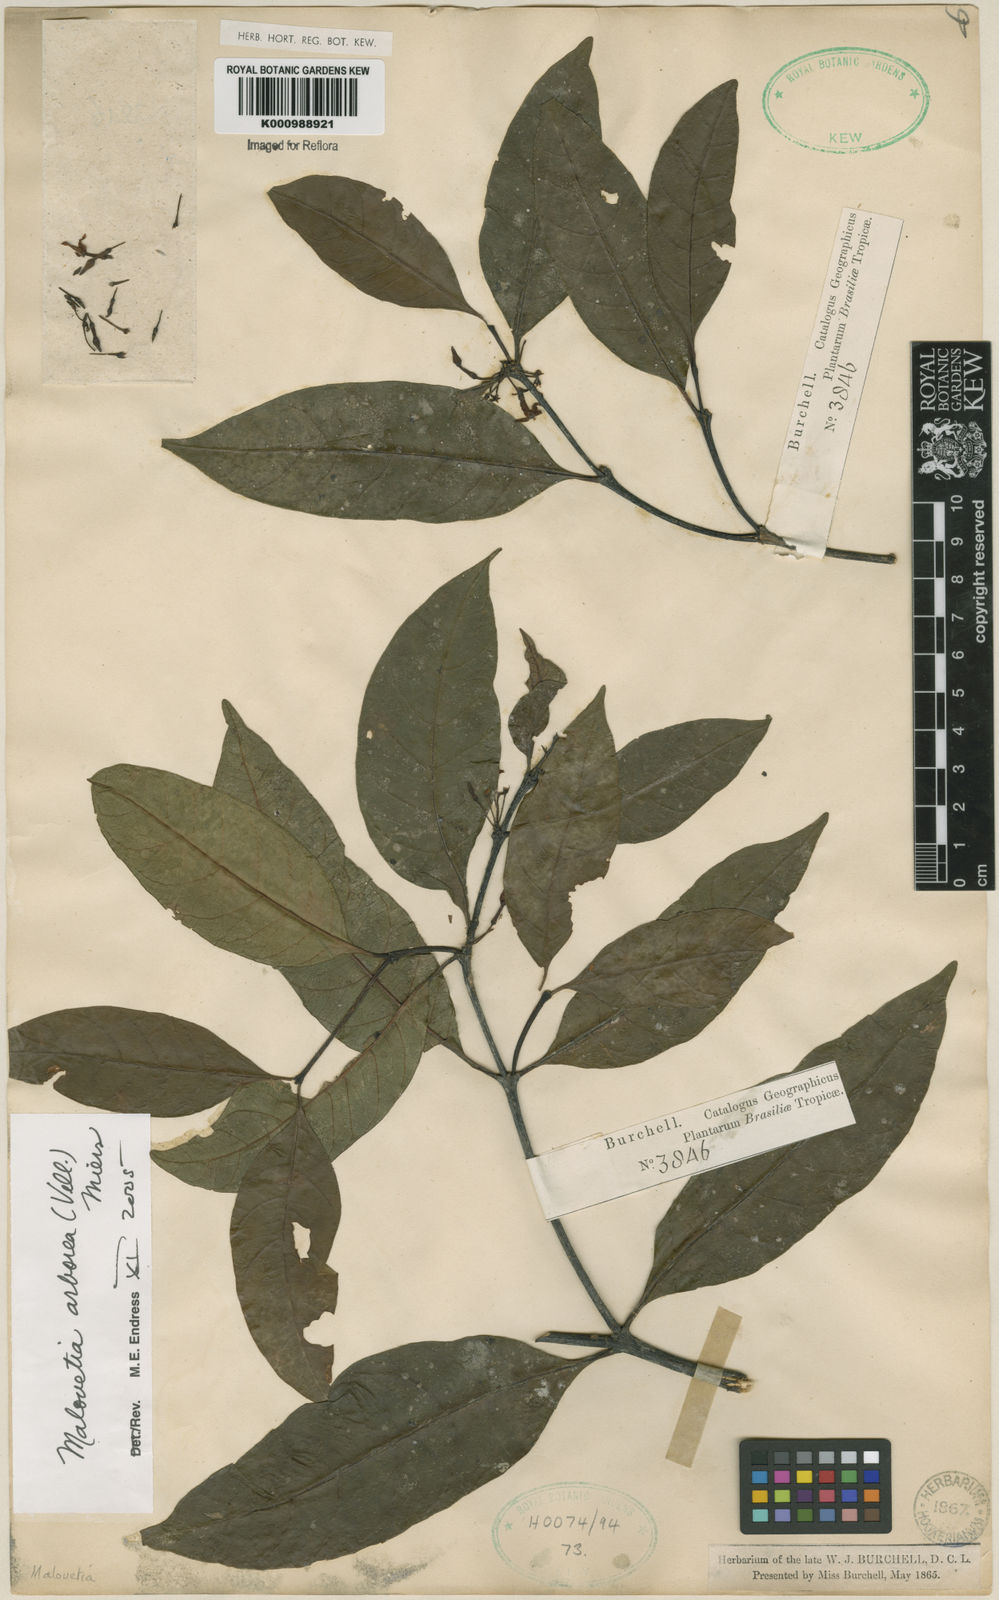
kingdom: Plantae
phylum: Tracheophyta
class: Magnoliopsida
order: Gentianales
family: Apocynaceae
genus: Malouetia
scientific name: Malouetia cestroides
